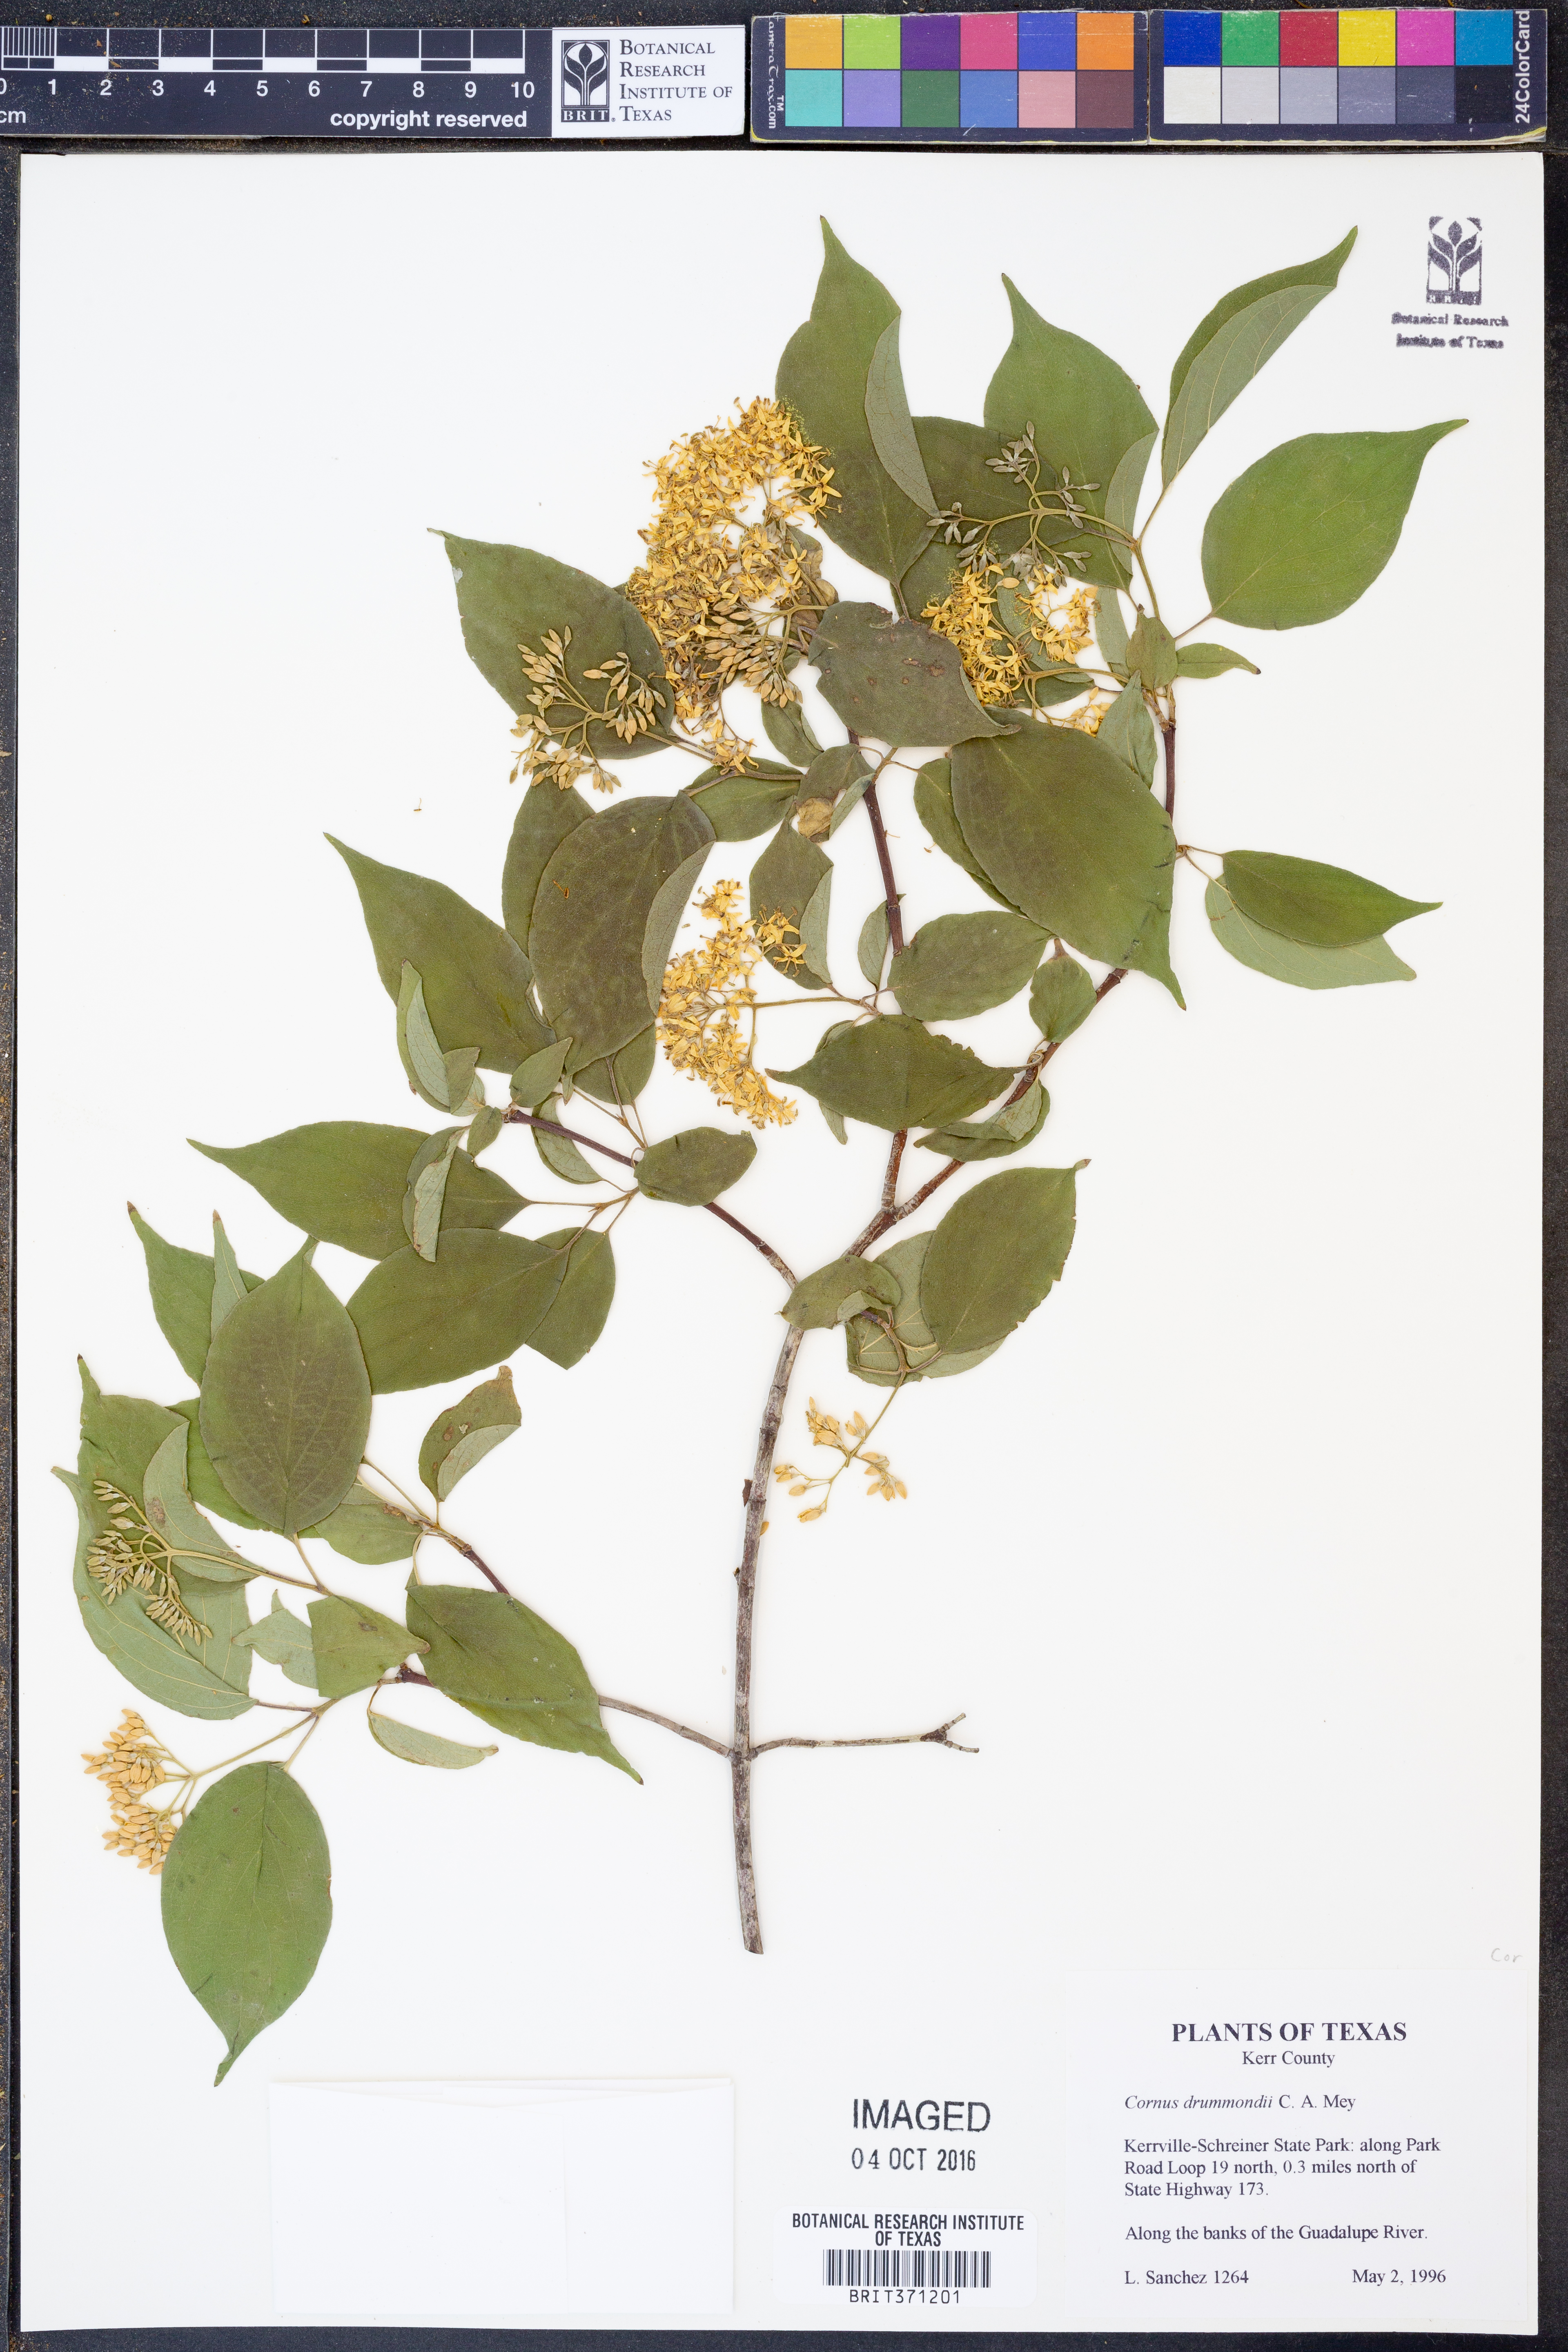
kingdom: Plantae
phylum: Tracheophyta
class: Magnoliopsida
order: Cornales
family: Cornaceae
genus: Cornus
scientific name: Cornus drummondii
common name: Rough-leaf dogwood
